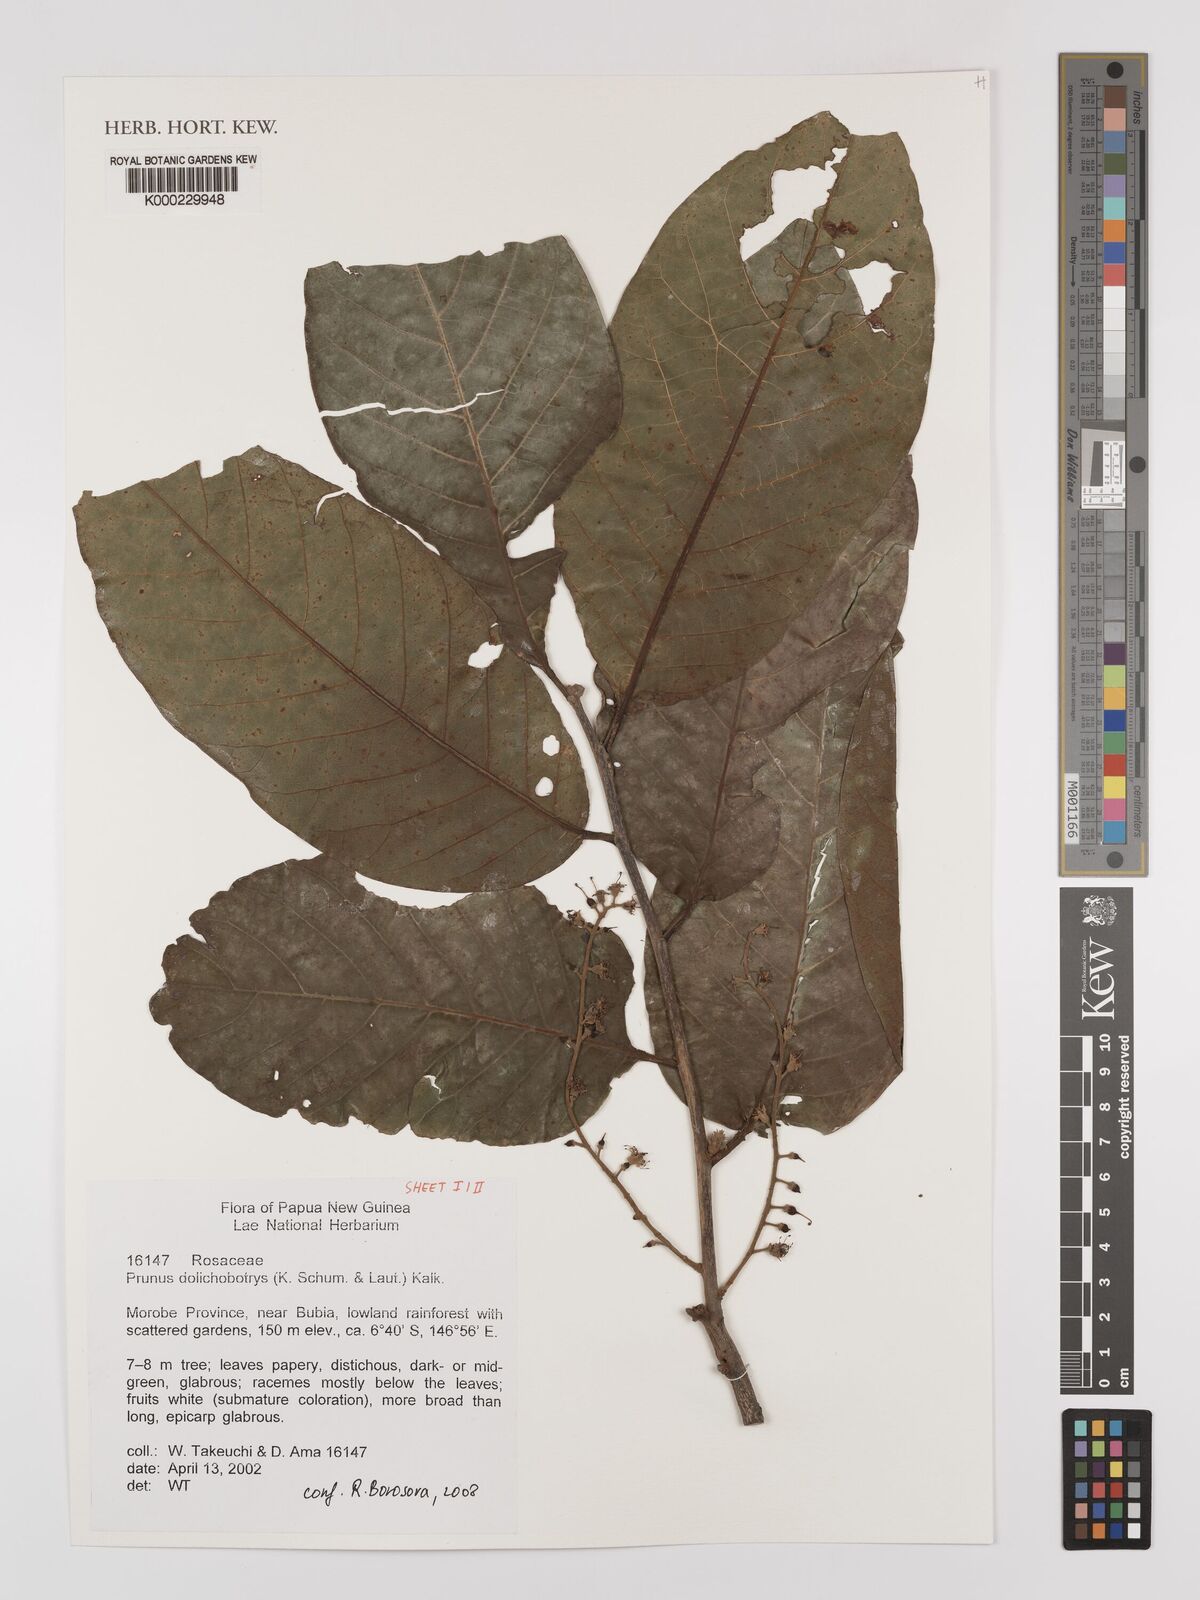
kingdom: Plantae
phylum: Tracheophyta
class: Magnoliopsida
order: Rosales
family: Rosaceae
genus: Prunus
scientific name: Prunus dolichobotrys
